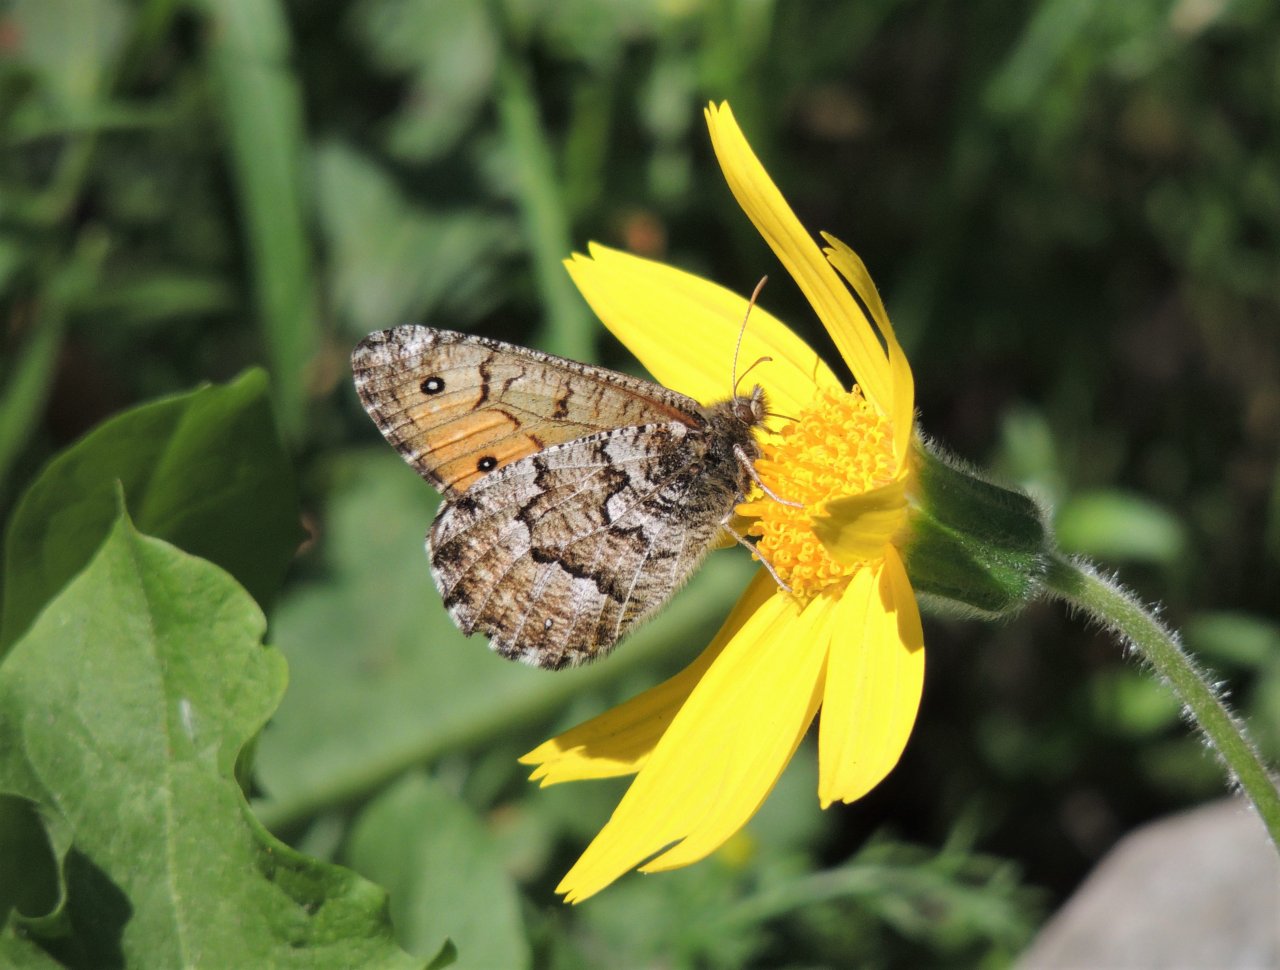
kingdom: Animalia
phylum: Arthropoda
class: Insecta
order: Lepidoptera
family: Nymphalidae
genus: Oeneis
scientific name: Oeneis chryxus
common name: Chryxus Arctic
